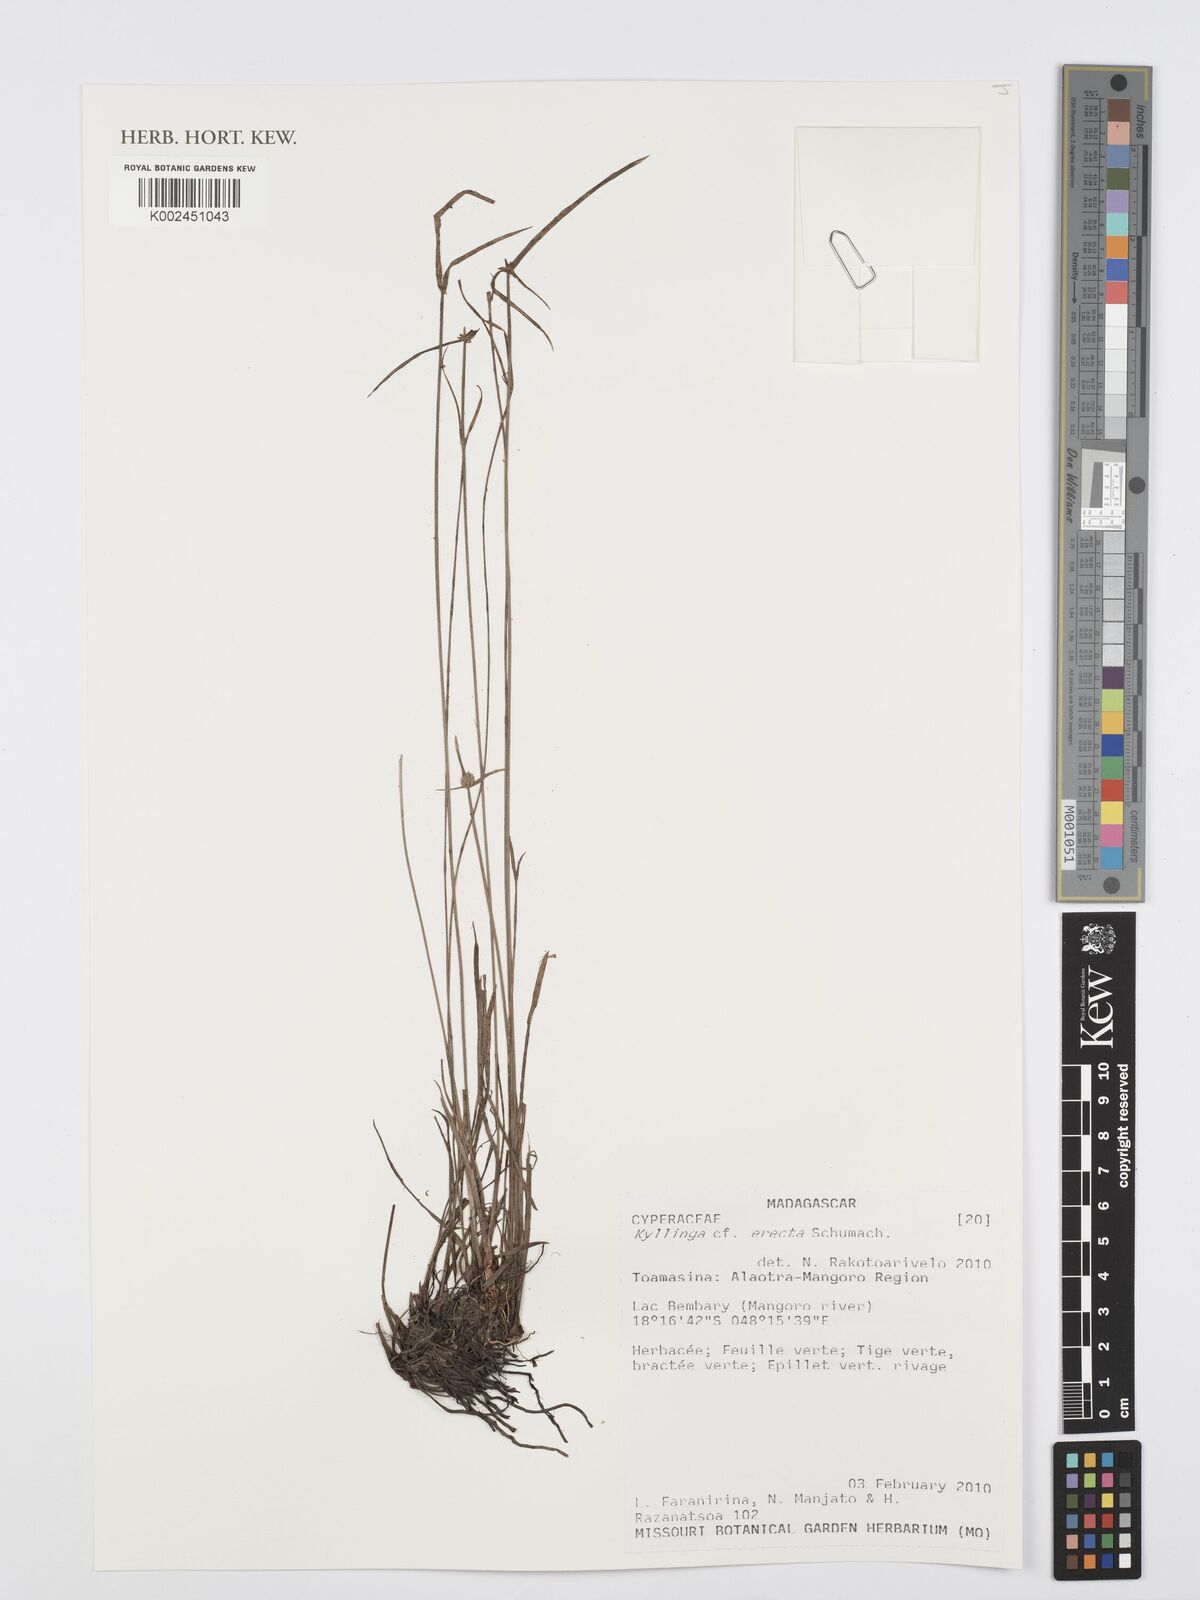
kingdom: Plantae
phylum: Tracheophyta
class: Liliopsida
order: Poales
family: Cyperaceae
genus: Cyperus
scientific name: Cyperus erectus
